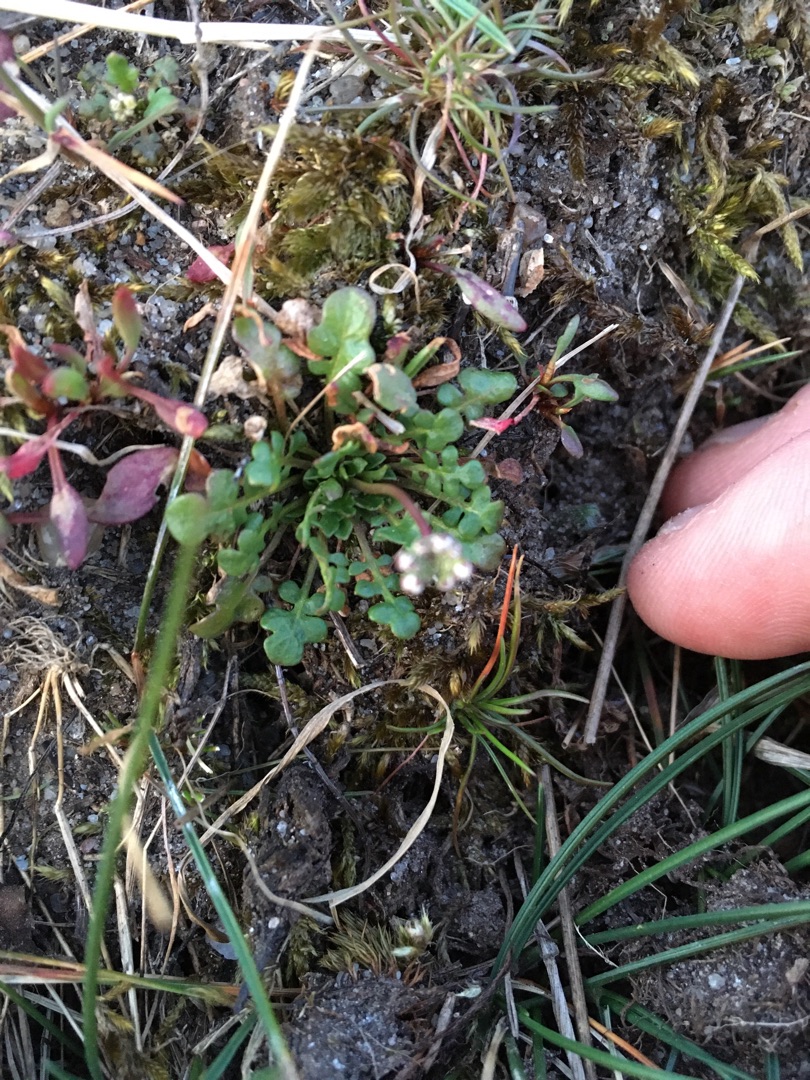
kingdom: Plantae
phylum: Tracheophyta
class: Magnoliopsida
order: Brassicales
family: Brassicaceae
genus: Teesdalia
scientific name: Teesdalia nudicaulis
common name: Flipkrave
